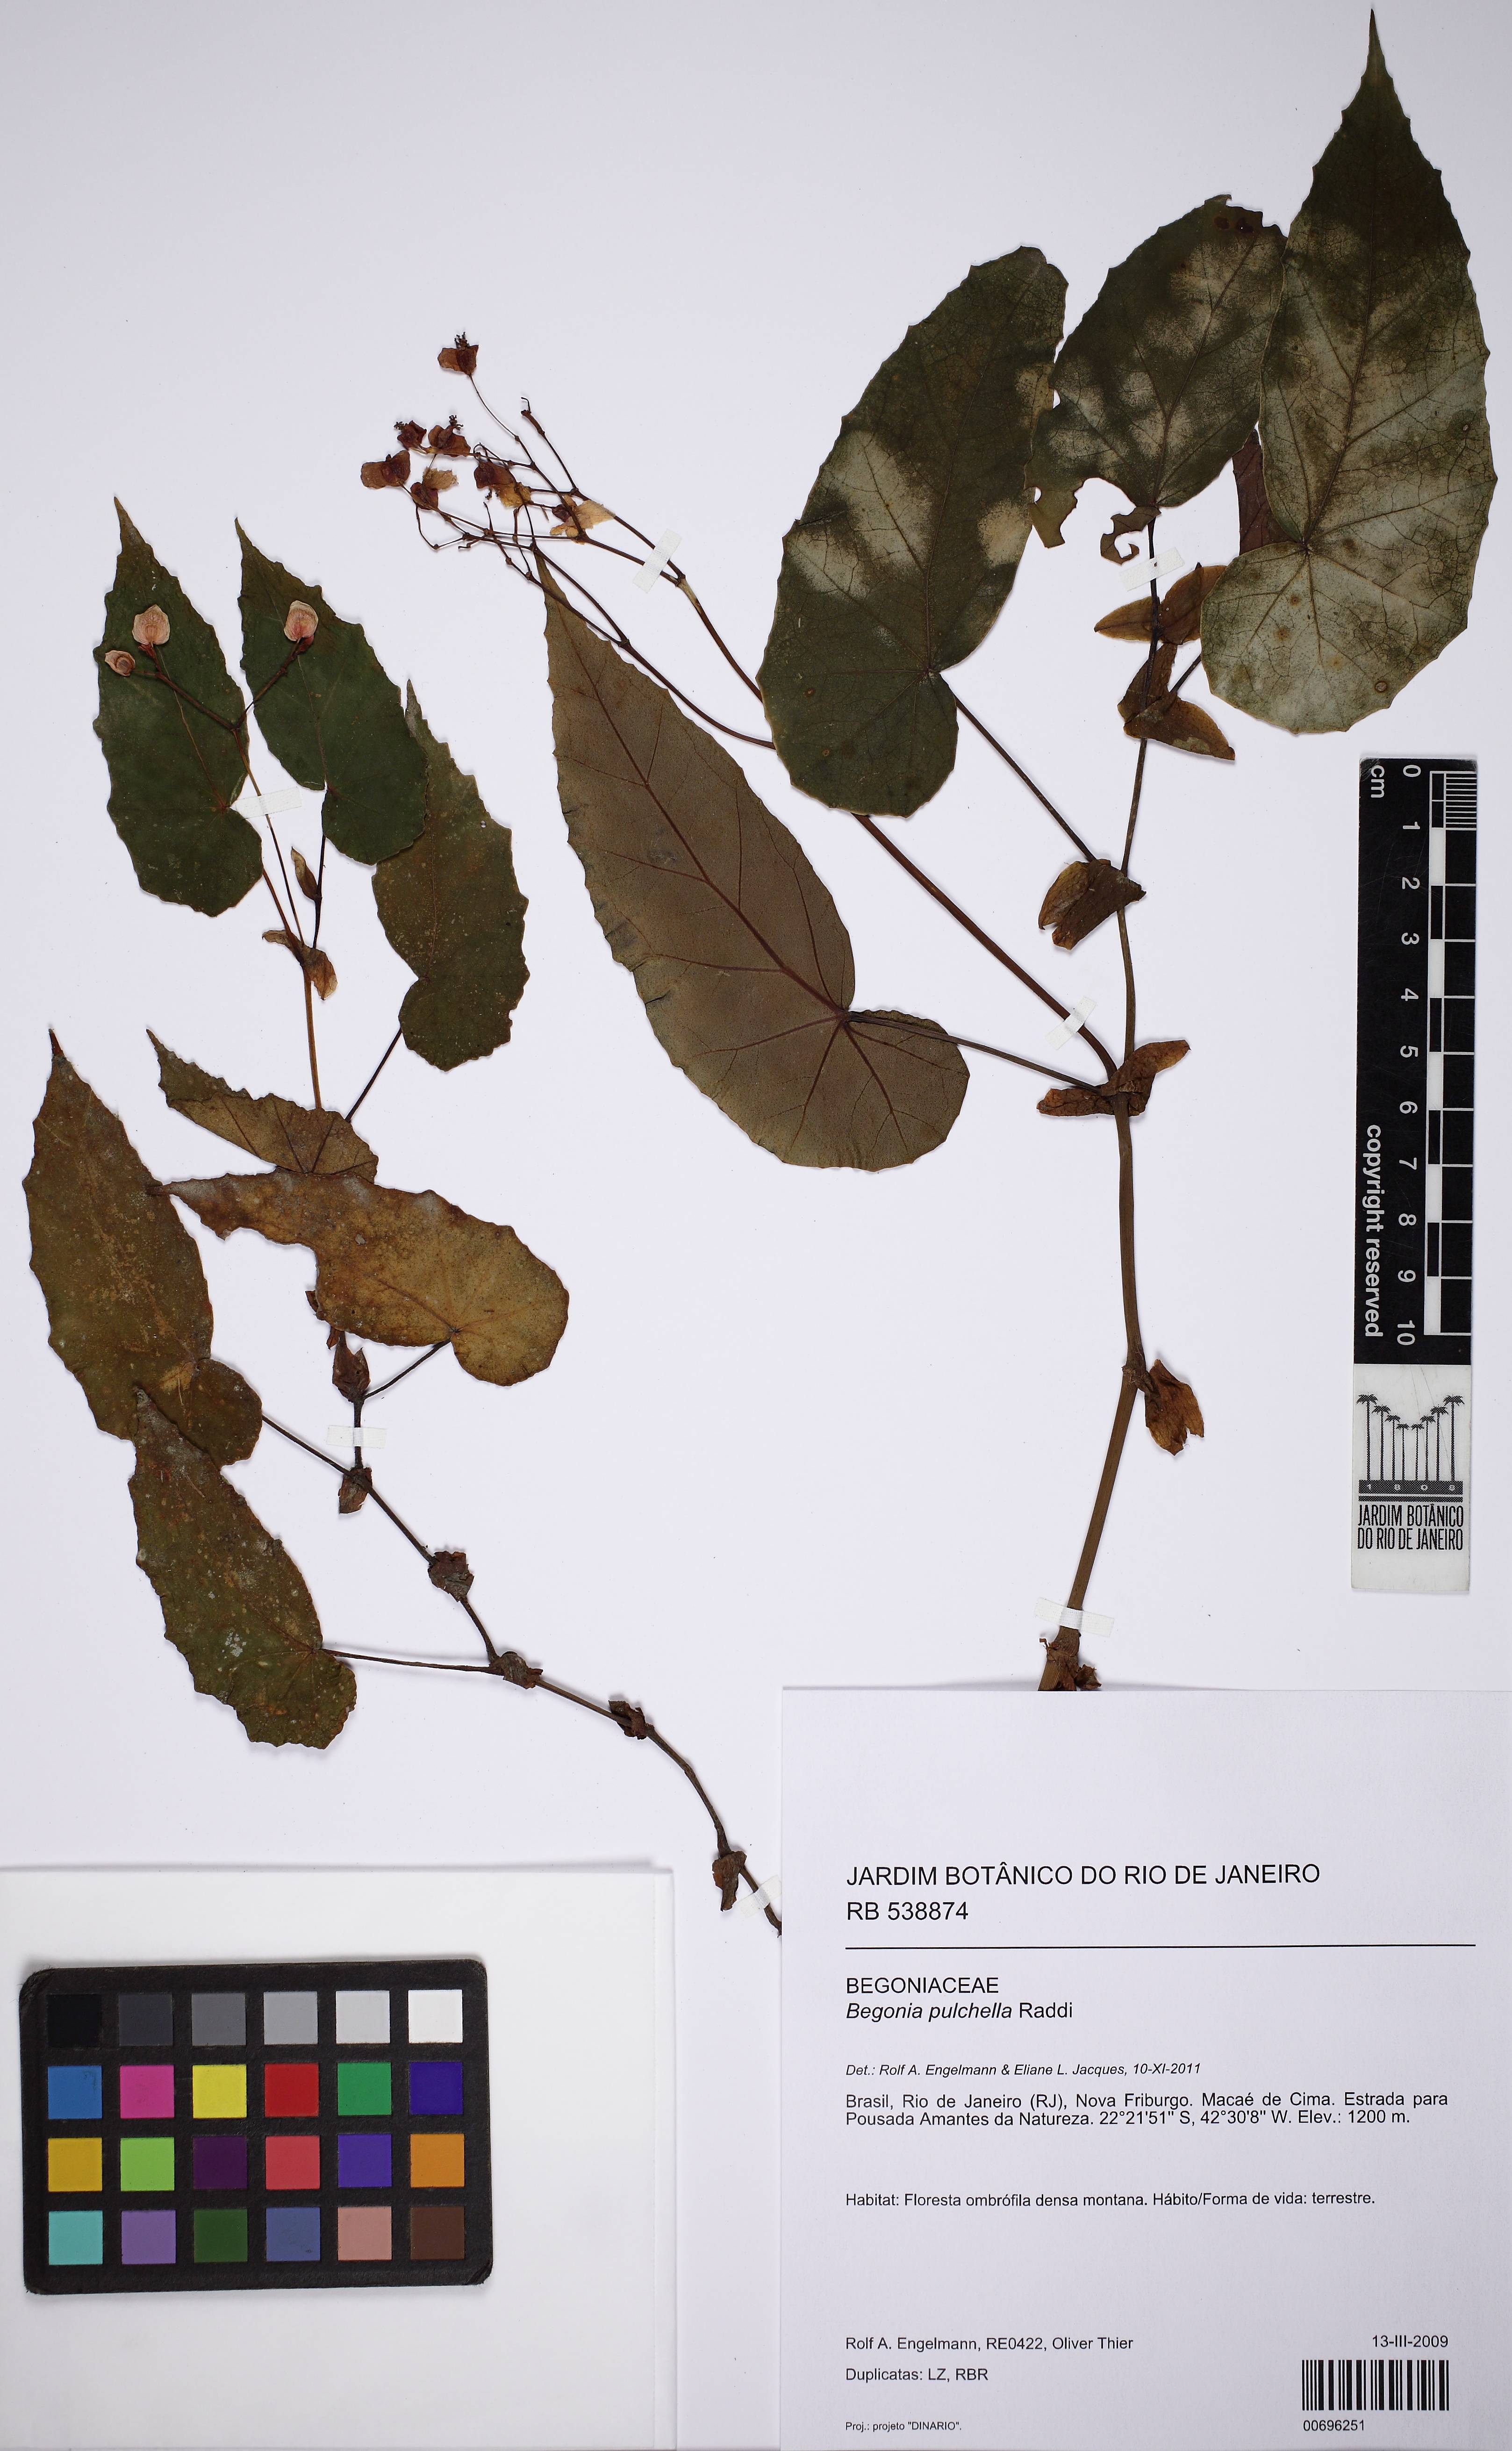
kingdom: Plantae
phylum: Tracheophyta
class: Magnoliopsida
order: Cucurbitales
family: Begoniaceae
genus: Begonia
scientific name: Begonia pulchella
